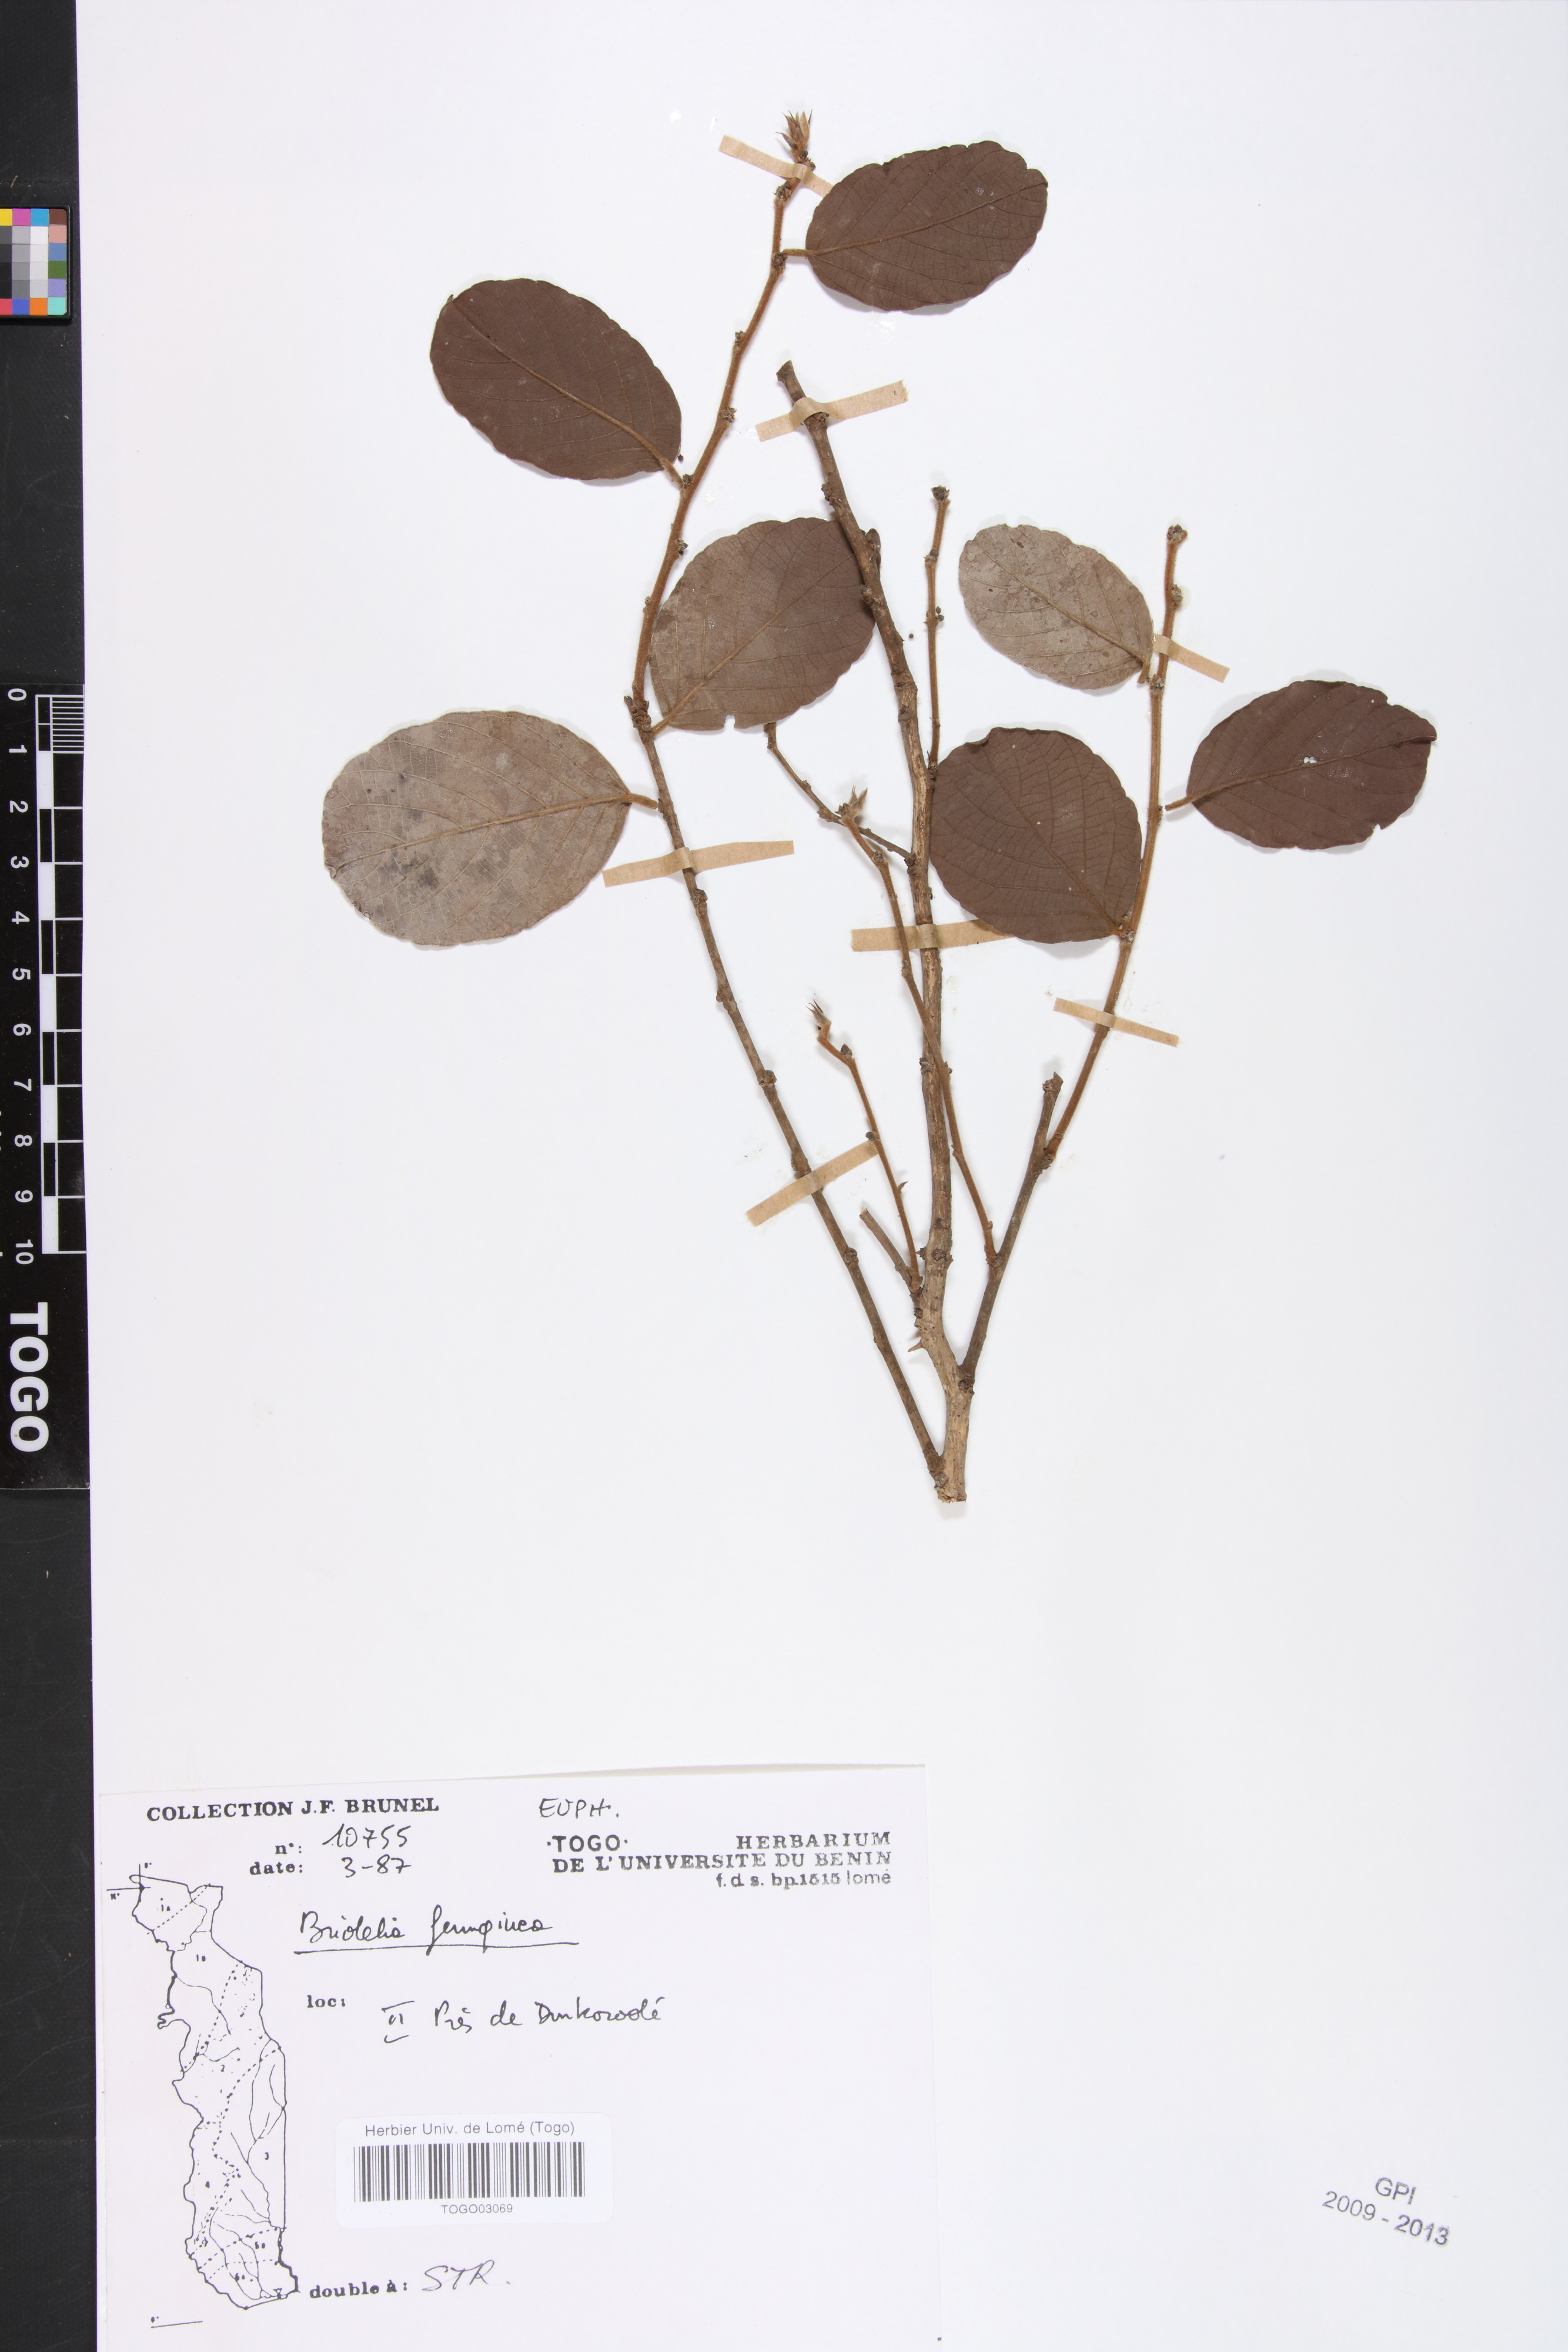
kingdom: Plantae
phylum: Tracheophyta
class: Magnoliopsida
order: Malpighiales
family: Phyllanthaceae
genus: Bridelia
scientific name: Bridelia ferruginea
